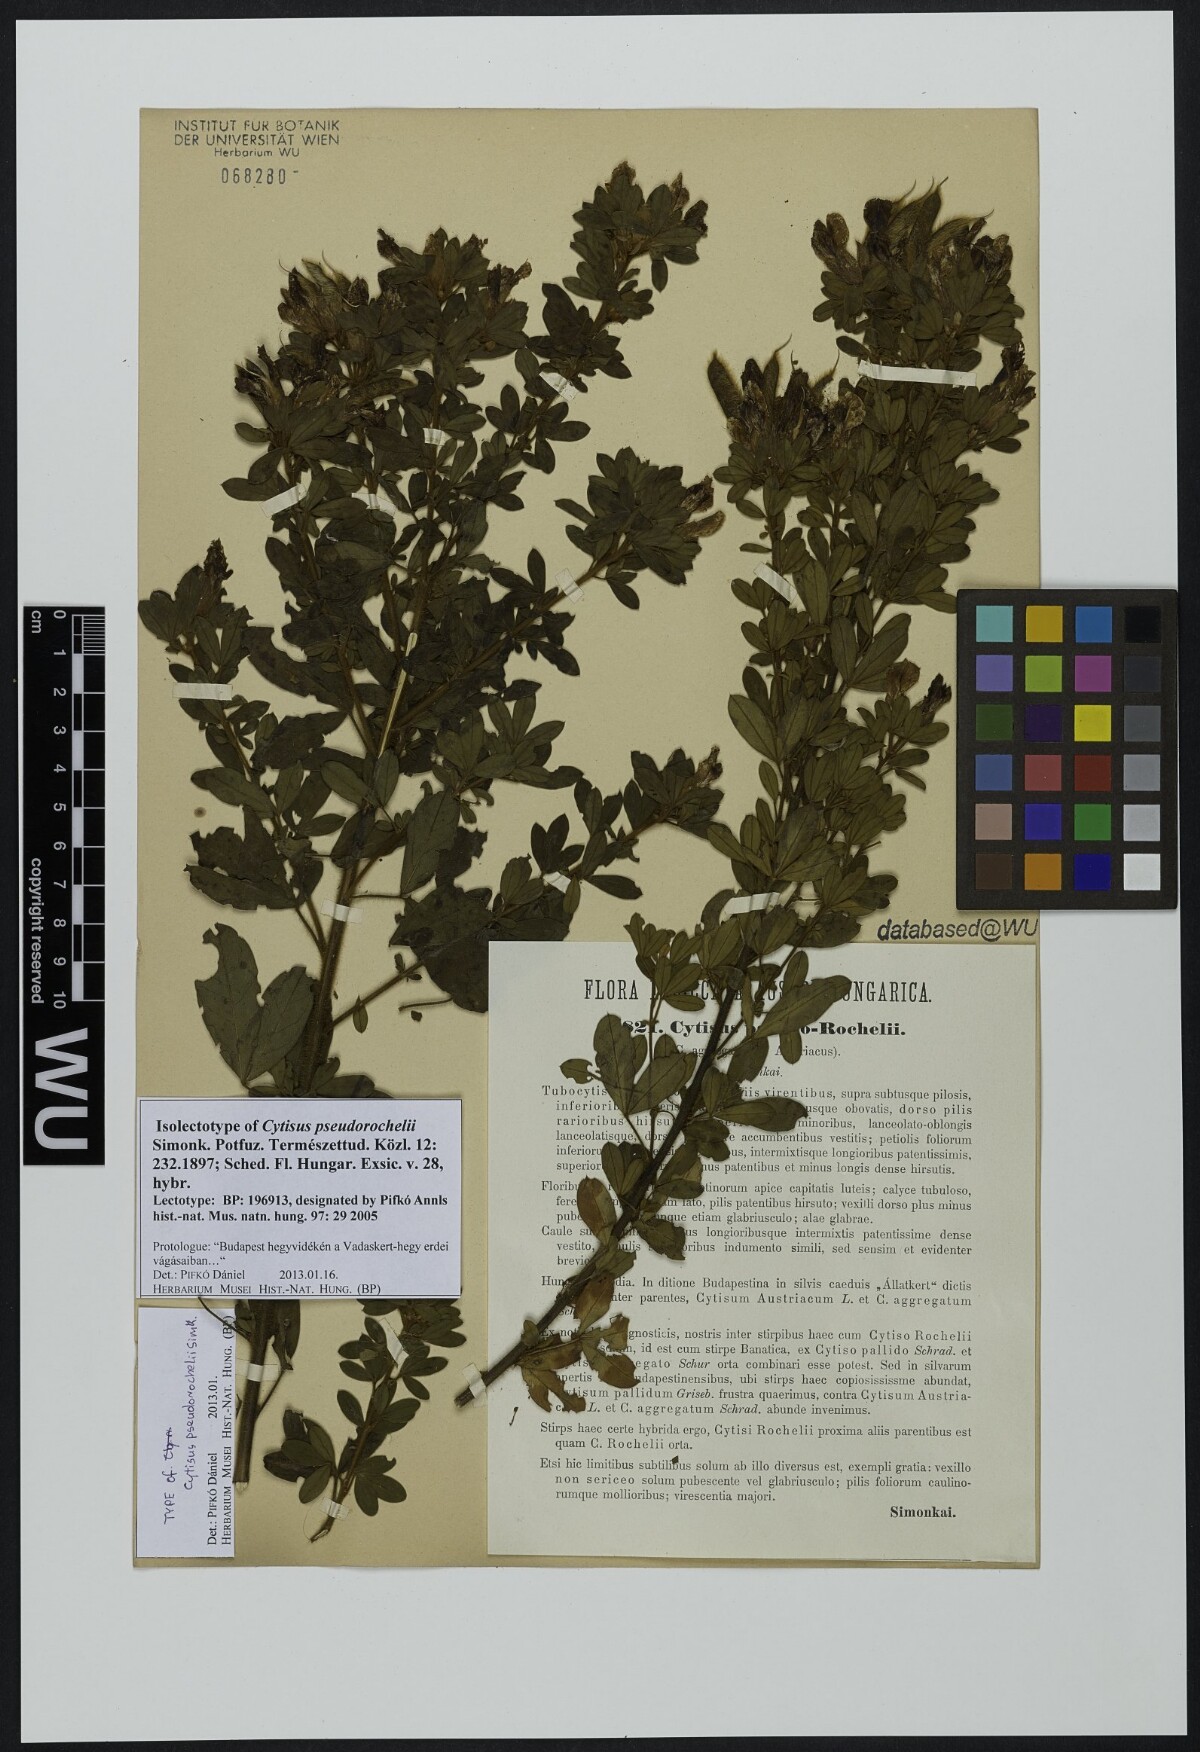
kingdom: Plantae
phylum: Tracheophyta
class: Magnoliopsida
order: Fabales
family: Fabaceae
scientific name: Fabaceae
